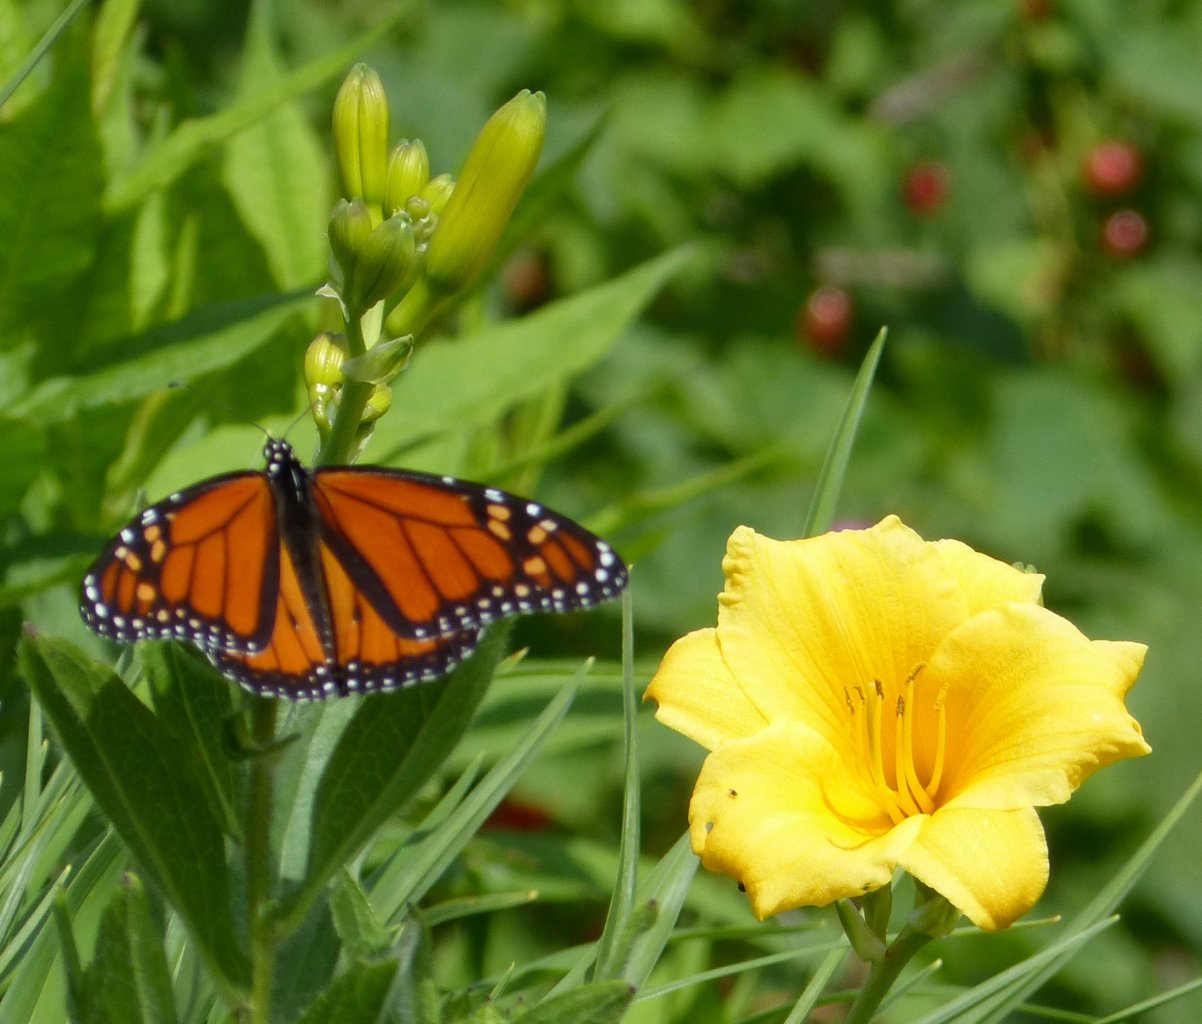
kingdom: Animalia
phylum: Arthropoda
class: Insecta
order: Lepidoptera
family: Nymphalidae
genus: Danaus
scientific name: Danaus plexippus
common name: Monarch
